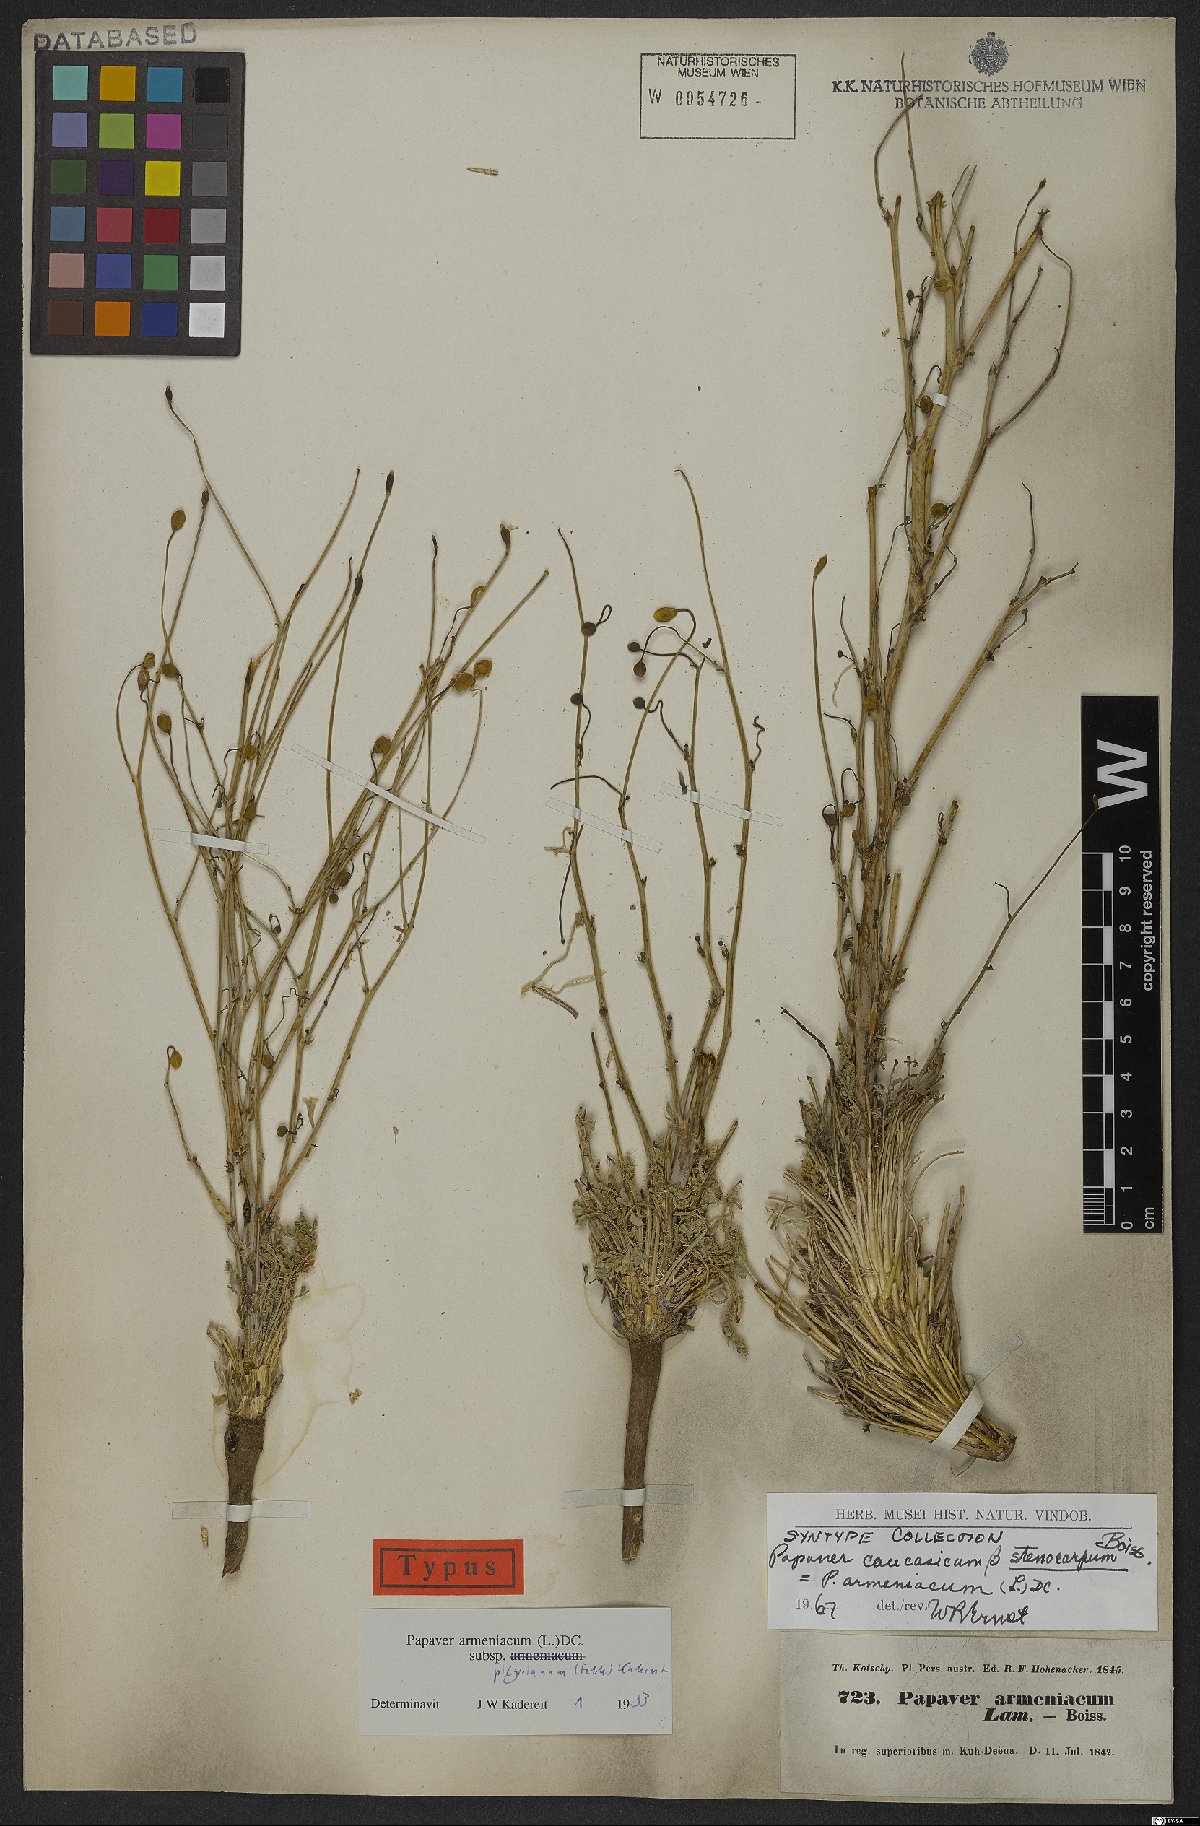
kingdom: Plantae
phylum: Tracheophyta
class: Magnoliopsida
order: Ranunculales
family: Papaveraceae
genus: Papaver
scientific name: Papaver armeniacum
